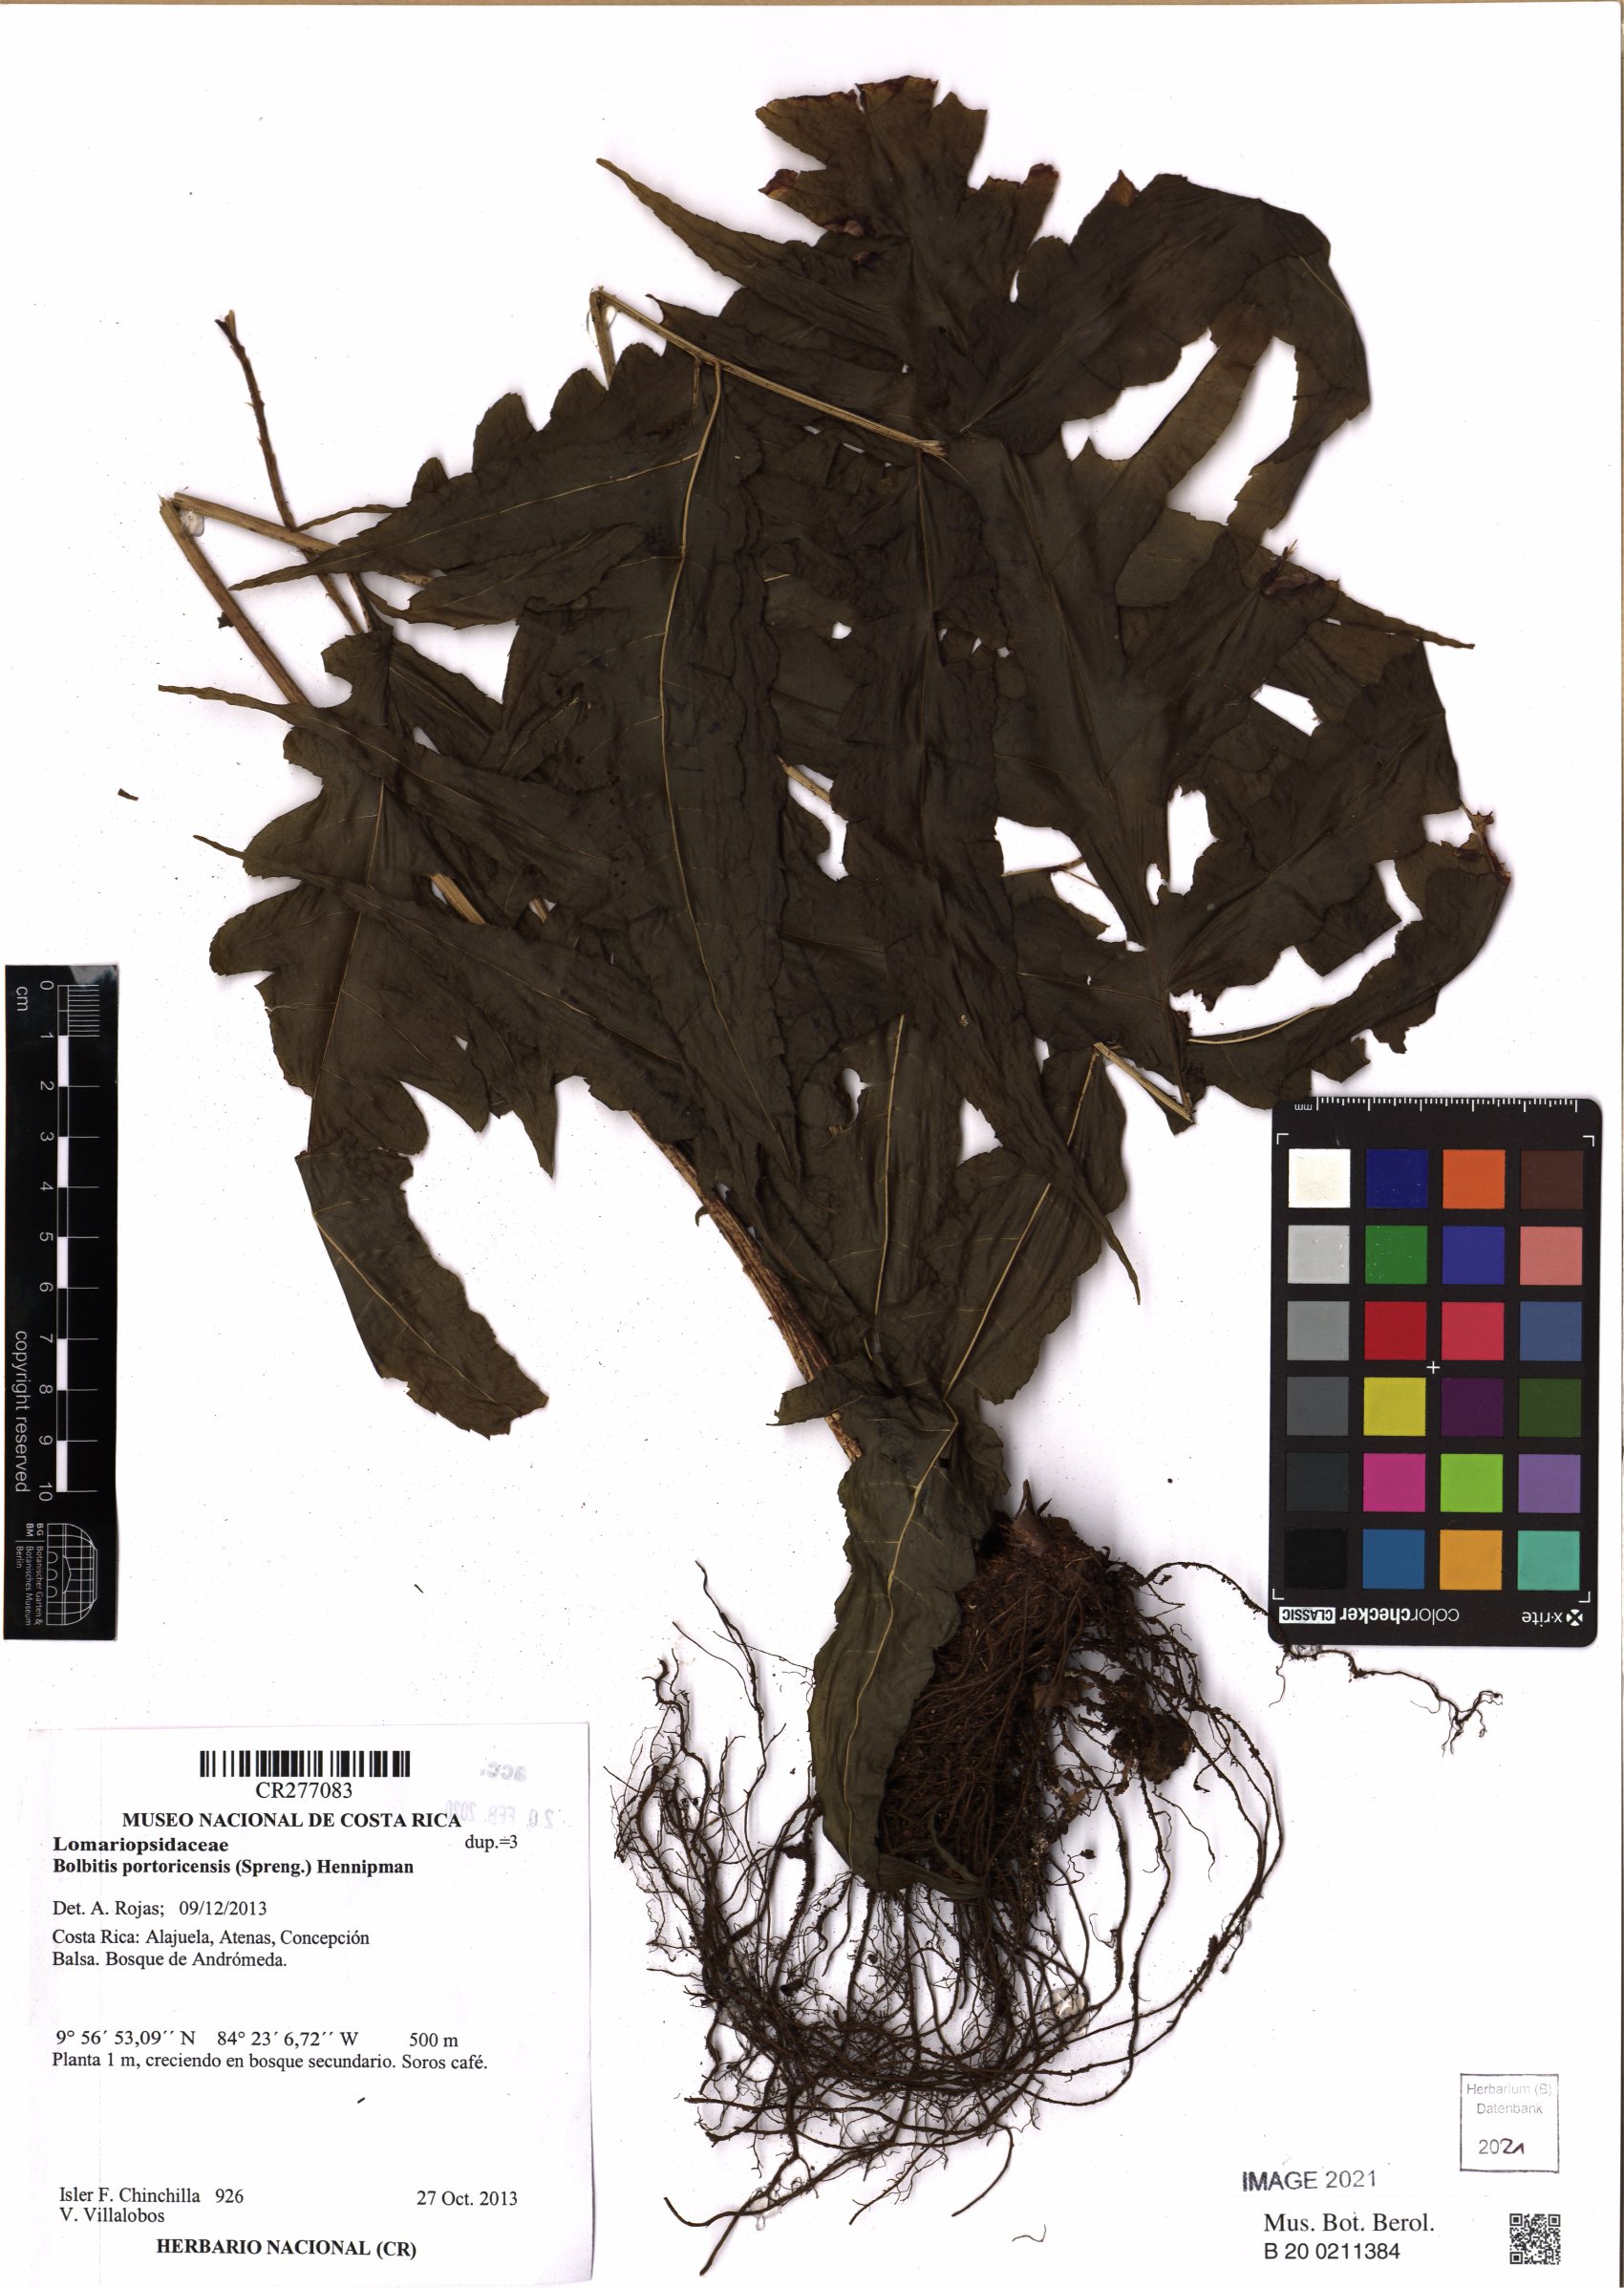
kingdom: Plantae
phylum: Tracheophyta
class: Polypodiopsida
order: Polypodiales
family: Dryopteridaceae
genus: Bolbitis
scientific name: Bolbitis portoricensis
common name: Puerto rico creepingfer
